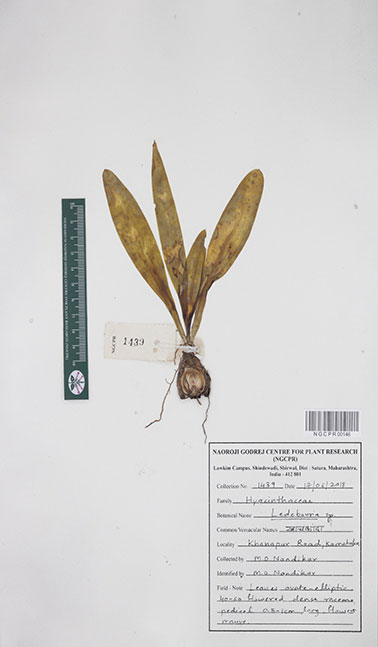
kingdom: Plantae
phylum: Tracheophyta
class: Liliopsida
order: Asparagales
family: Asparagaceae
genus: Ledebouria
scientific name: Ledebouria
